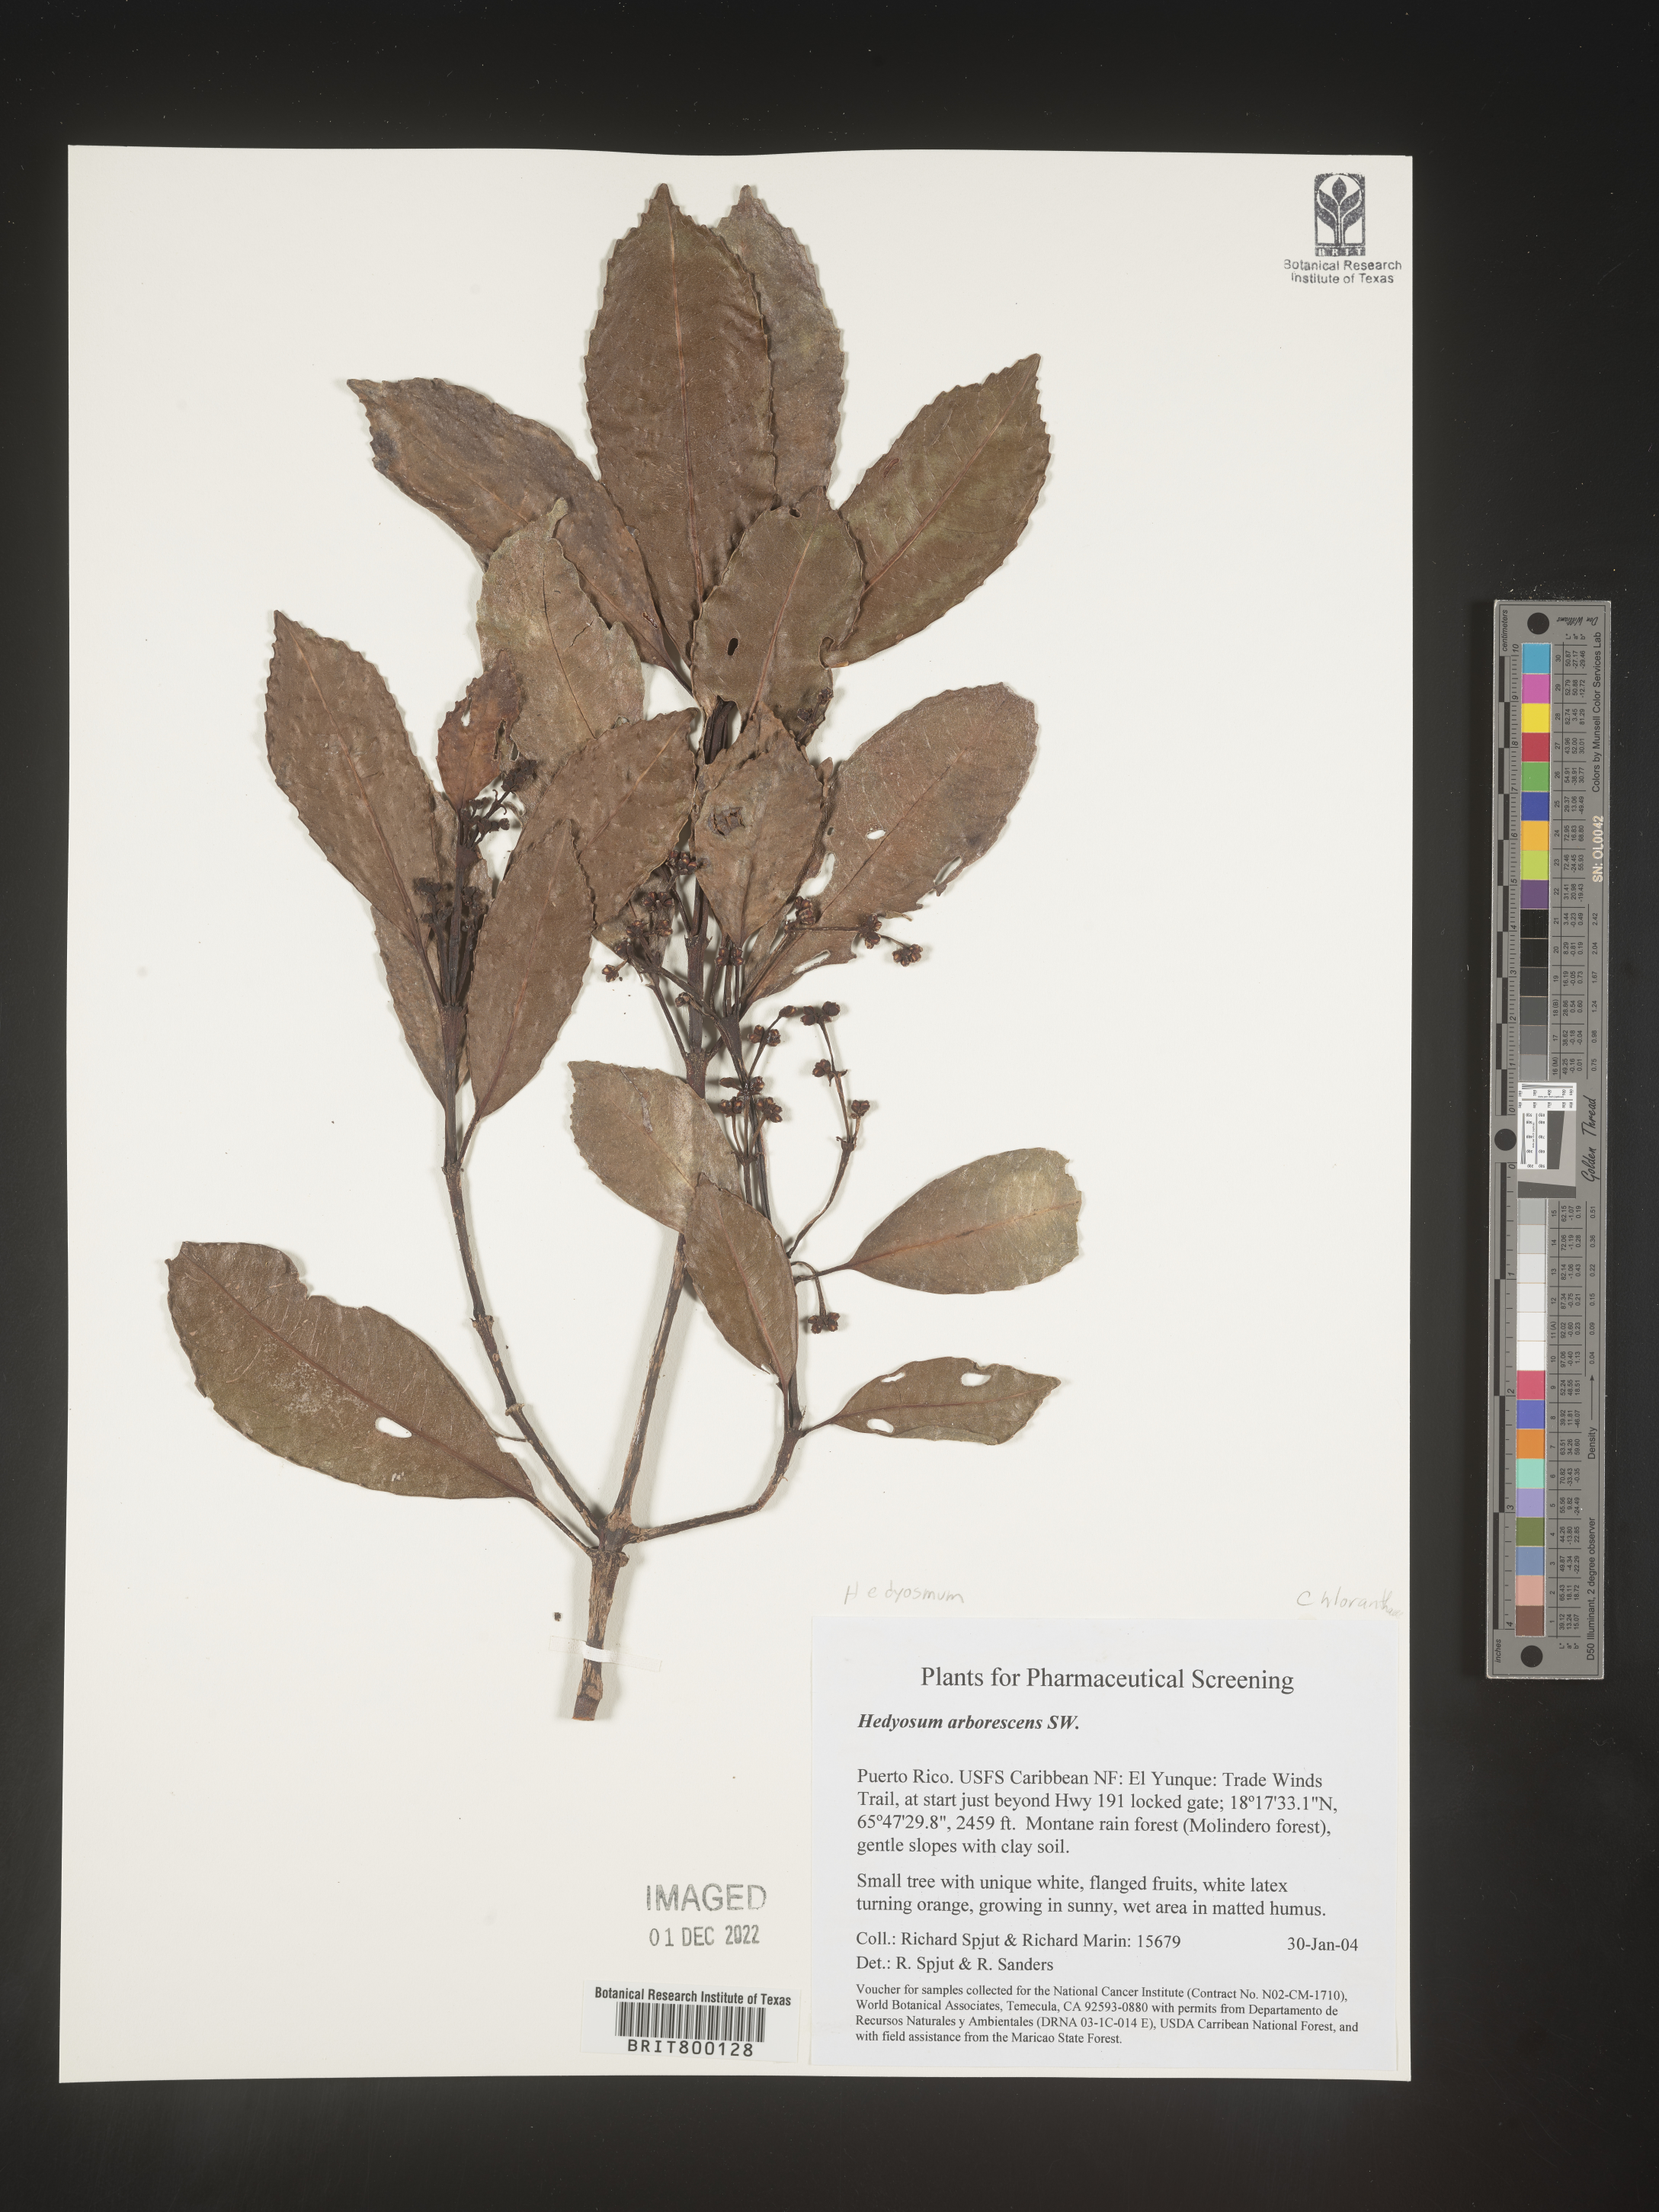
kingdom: Plantae
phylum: Tracheophyta
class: Magnoliopsida
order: Chloranthales
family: Chloranthaceae
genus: Hedyosmum
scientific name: Hedyosmum
